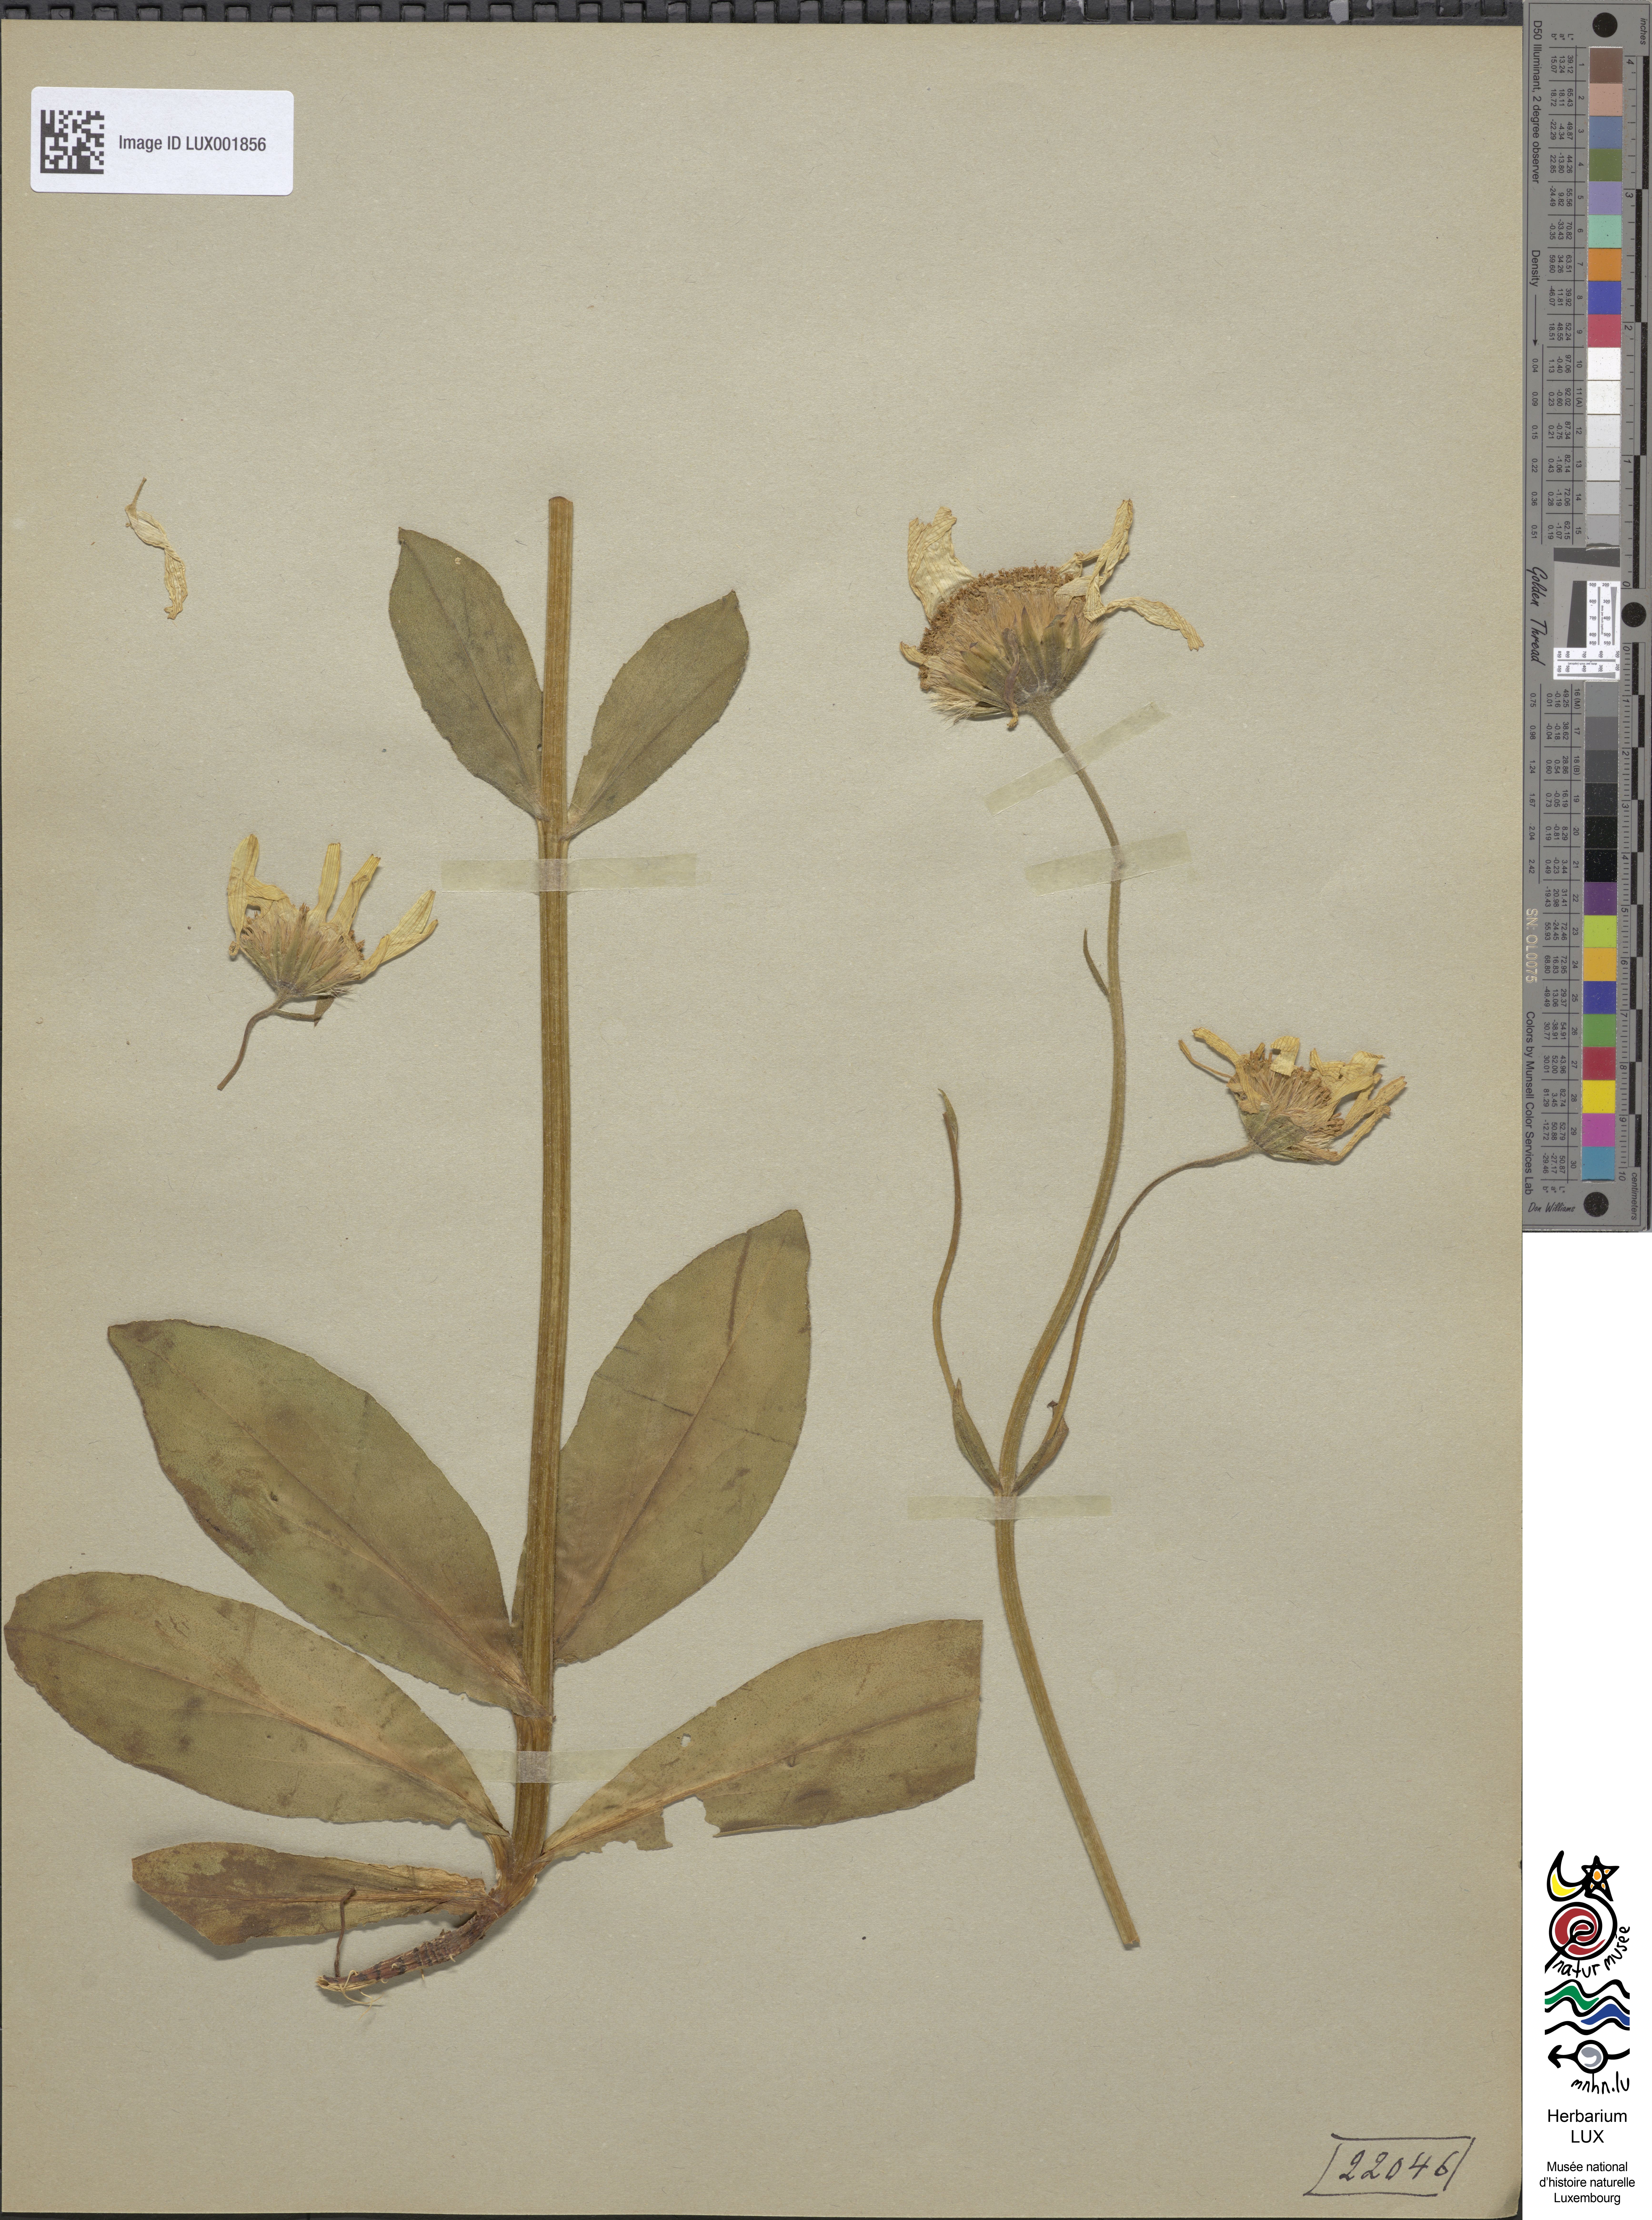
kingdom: Plantae
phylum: Tracheophyta
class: Magnoliopsida
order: Asterales
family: Asteraceae
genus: Arnica
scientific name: Arnica montana
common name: Leopard's bane
